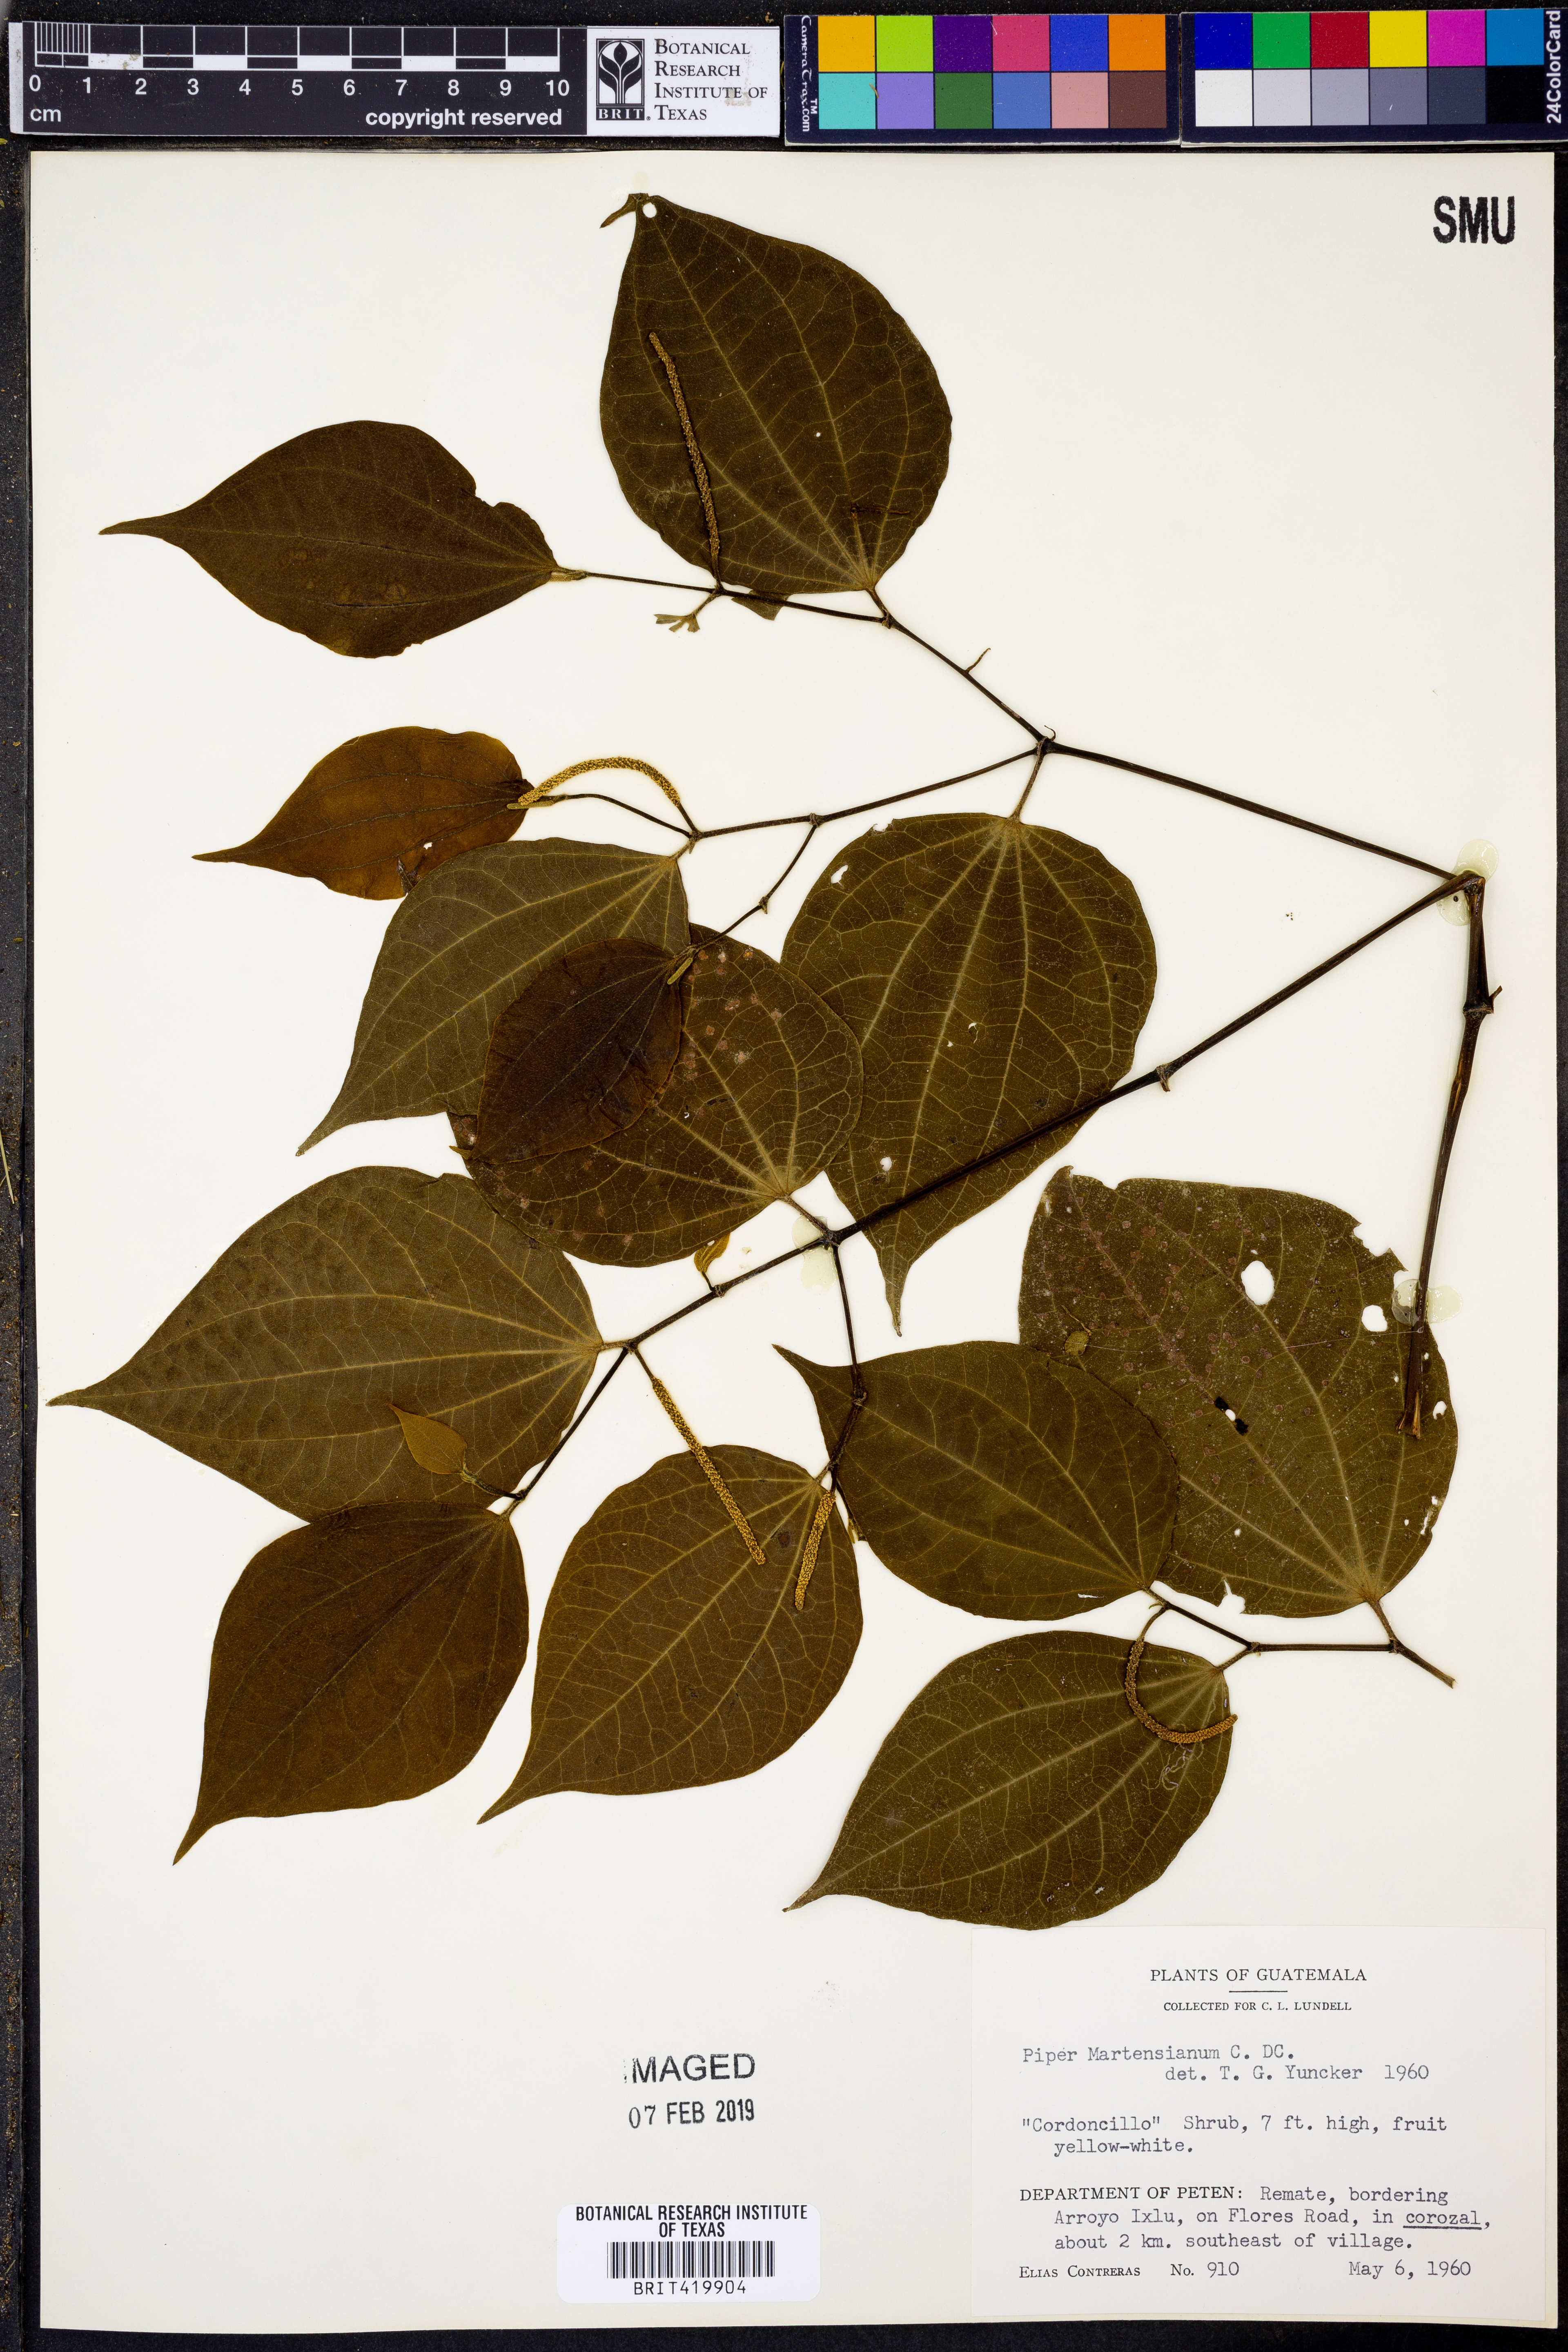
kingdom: Plantae
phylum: Tracheophyta
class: Magnoliopsida
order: Piperales
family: Piperaceae
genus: Piper
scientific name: Piper martensianum
